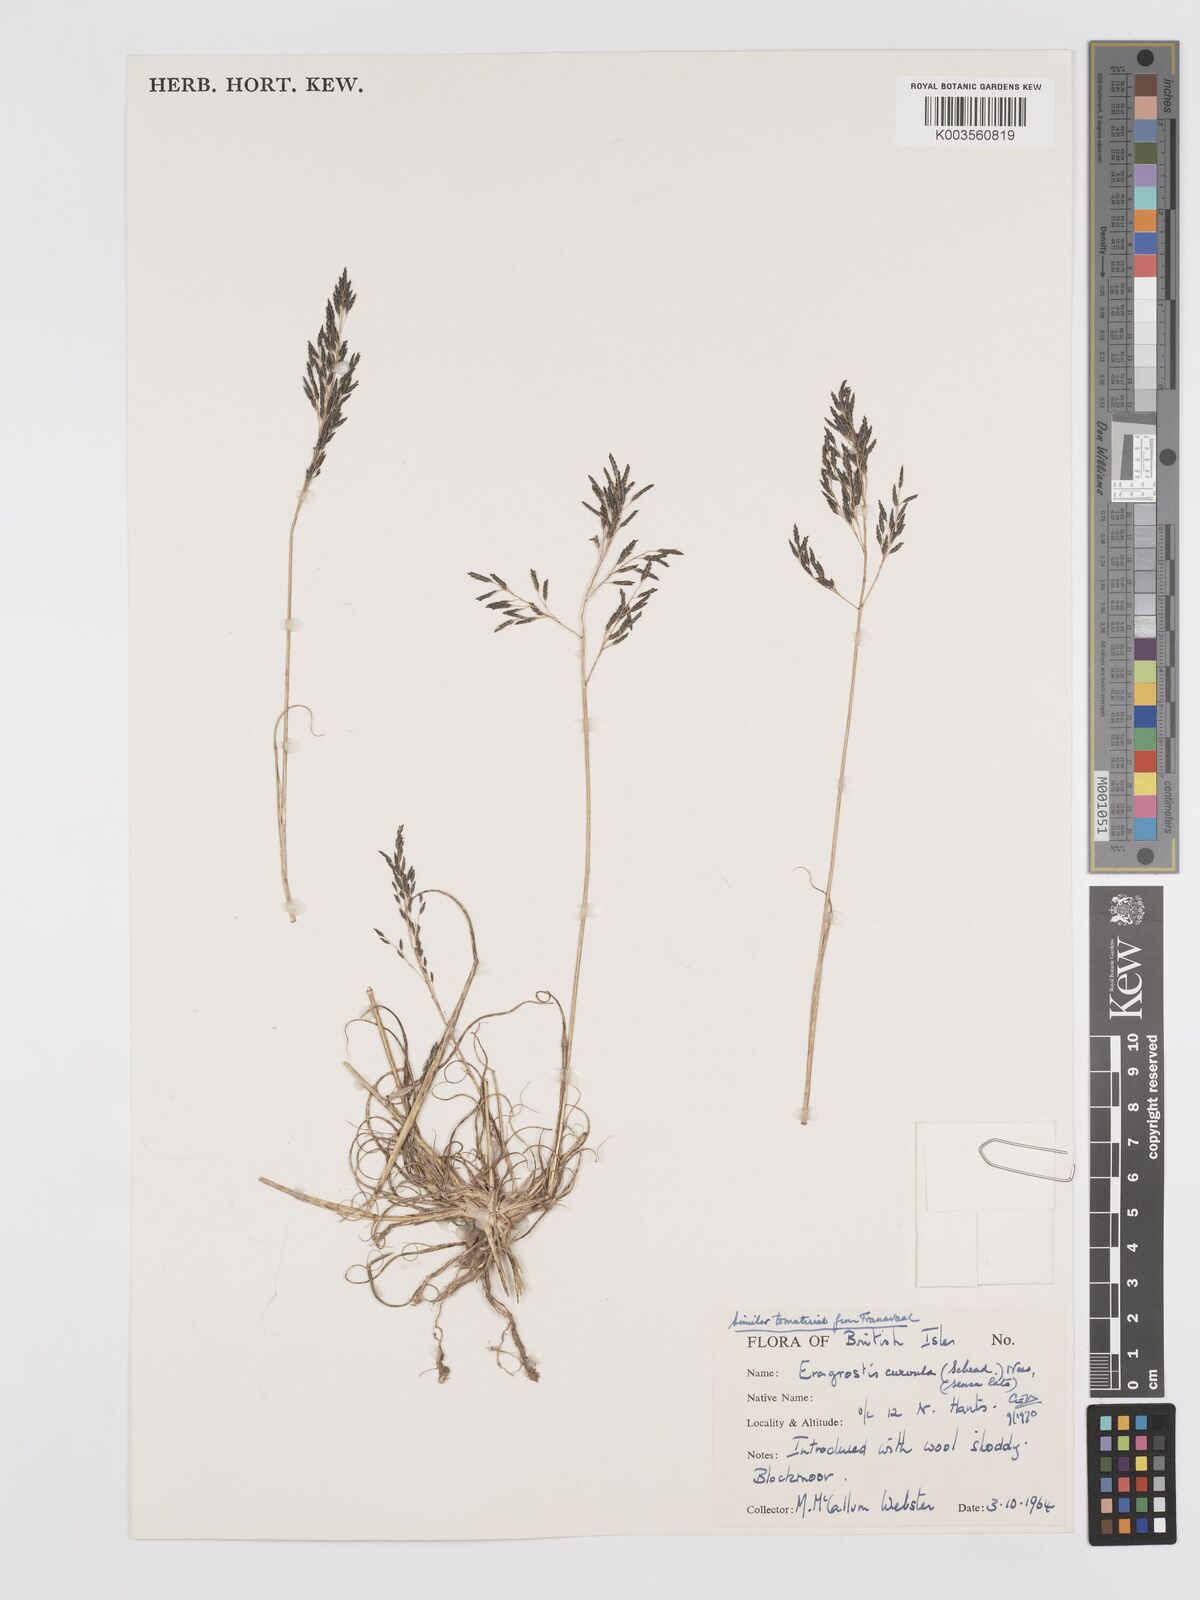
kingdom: Plantae
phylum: Tracheophyta
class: Liliopsida
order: Poales
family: Poaceae
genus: Eragrostis
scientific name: Eragrostis curvula
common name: African love-grass
